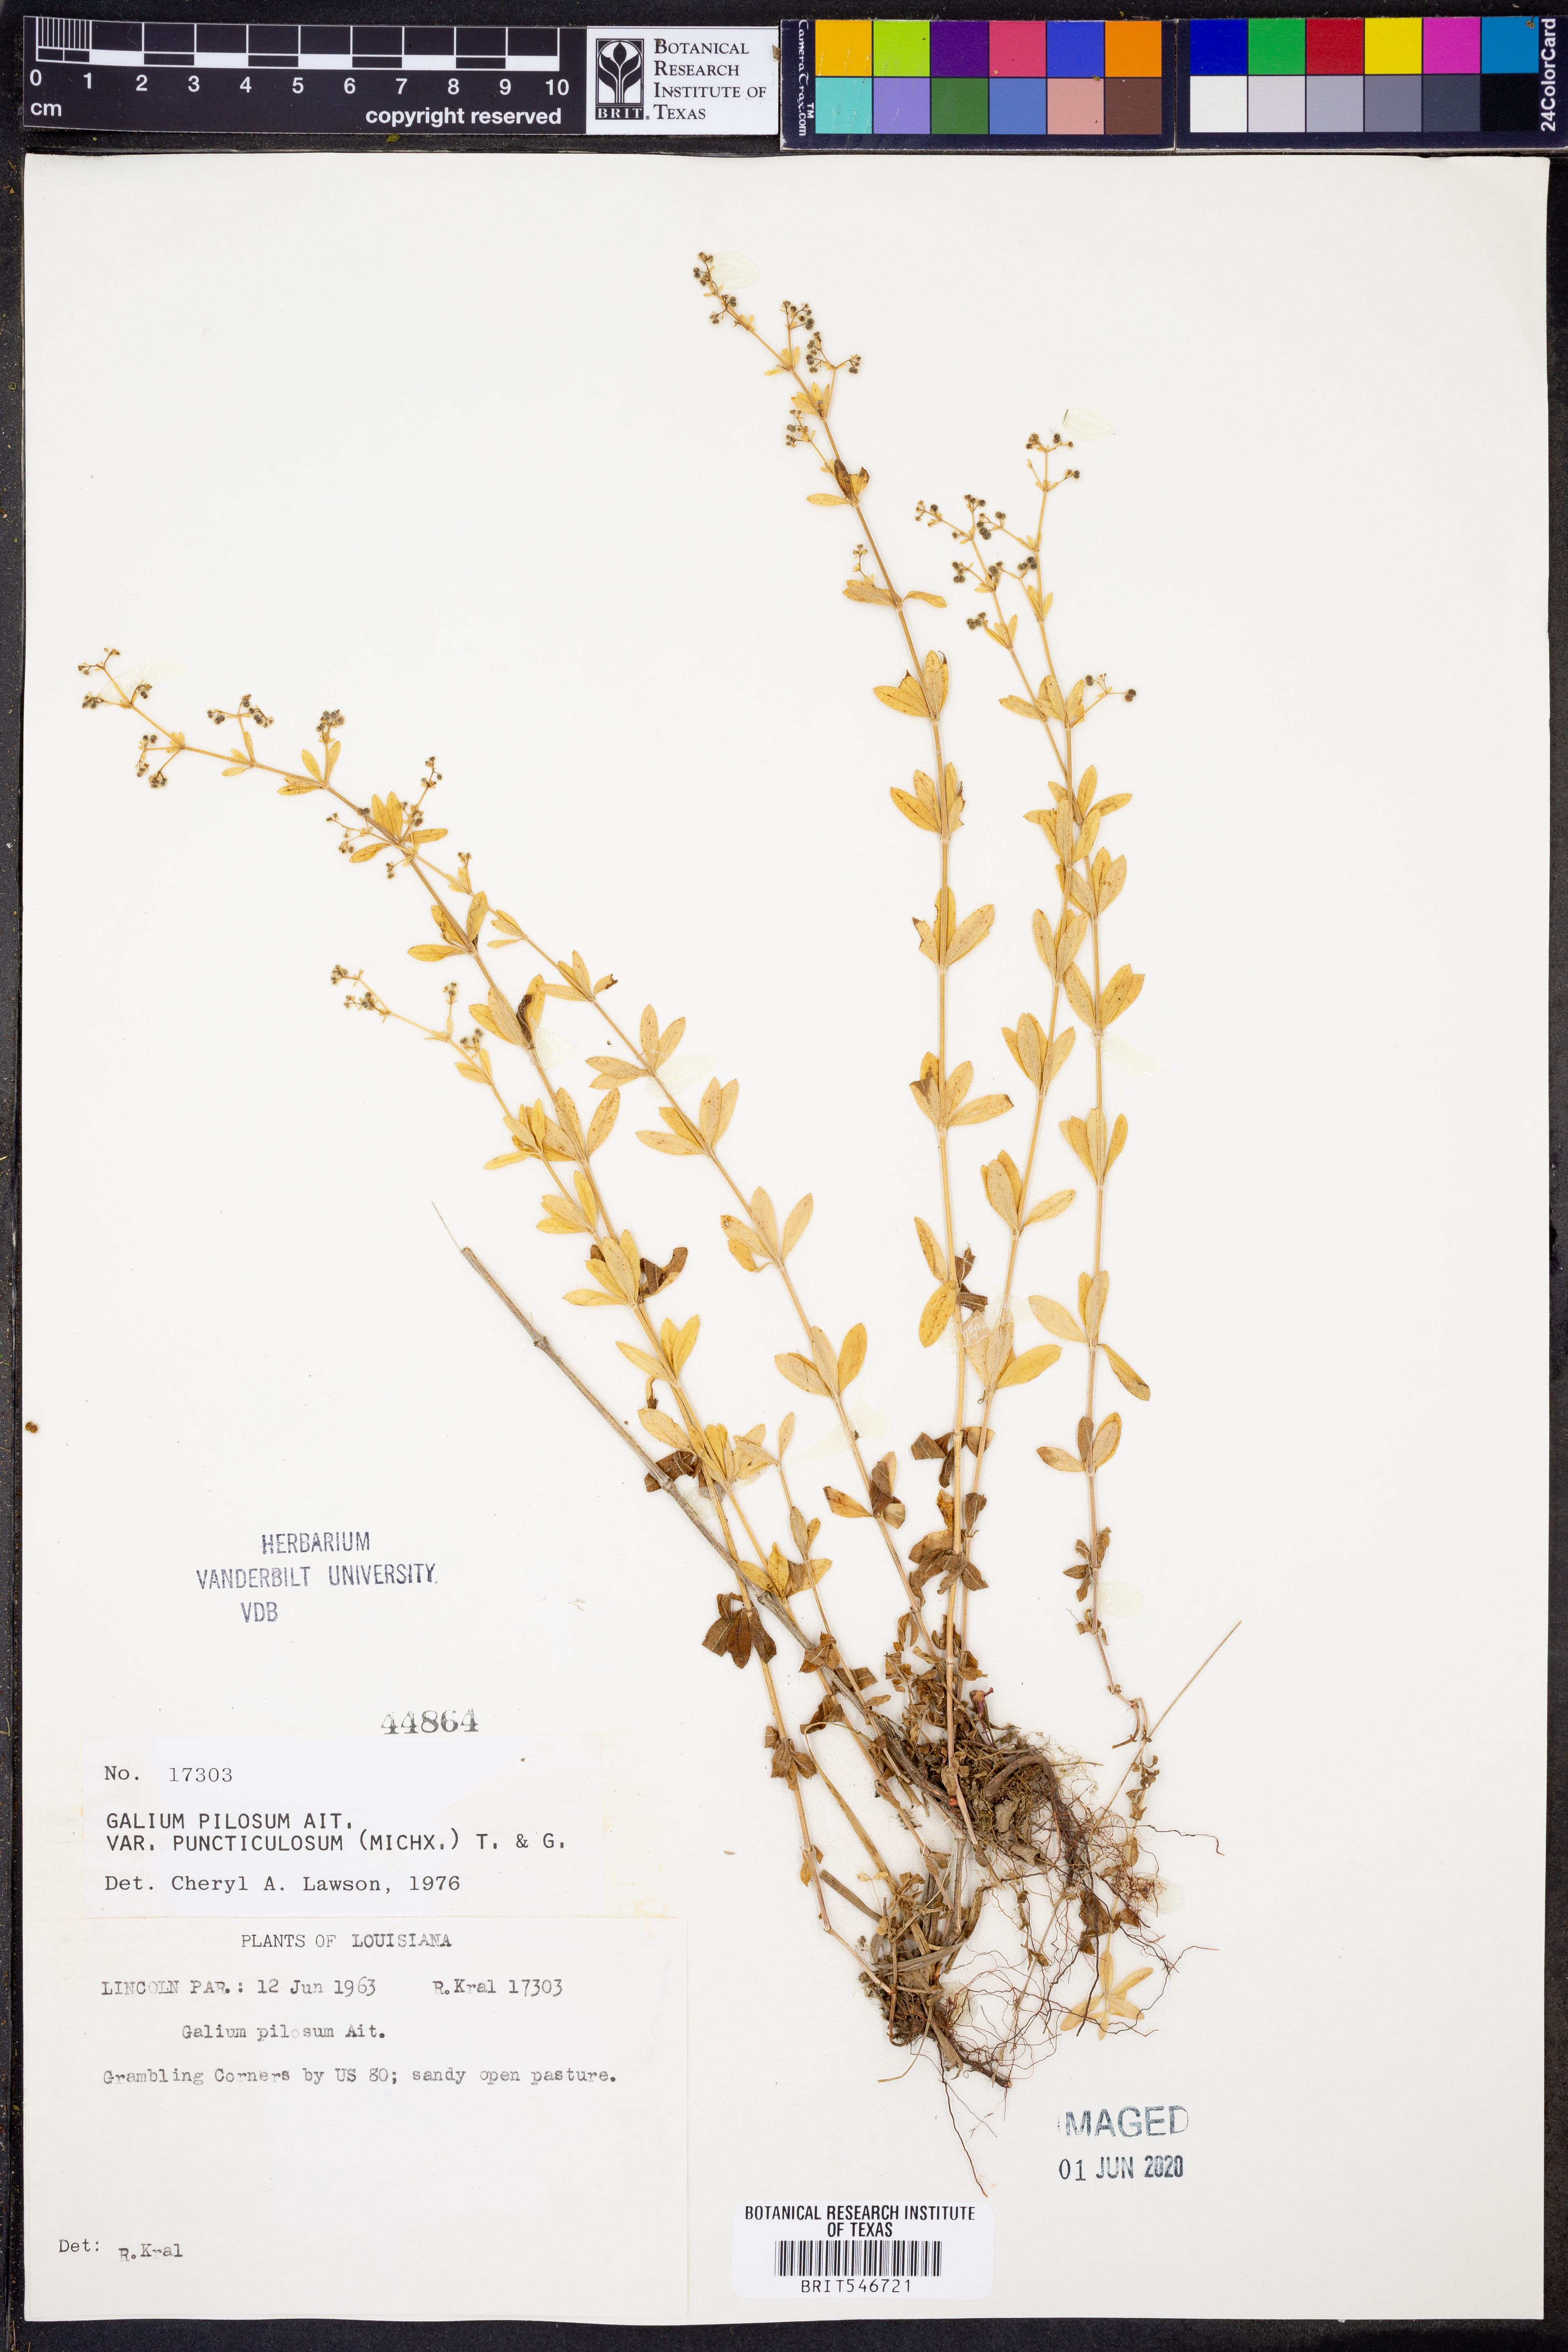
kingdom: Plantae
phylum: Tracheophyta
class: Magnoliopsida
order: Gentianales
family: Rubiaceae
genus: Galium
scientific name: Galium pilosum
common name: Hairy bedstraw
